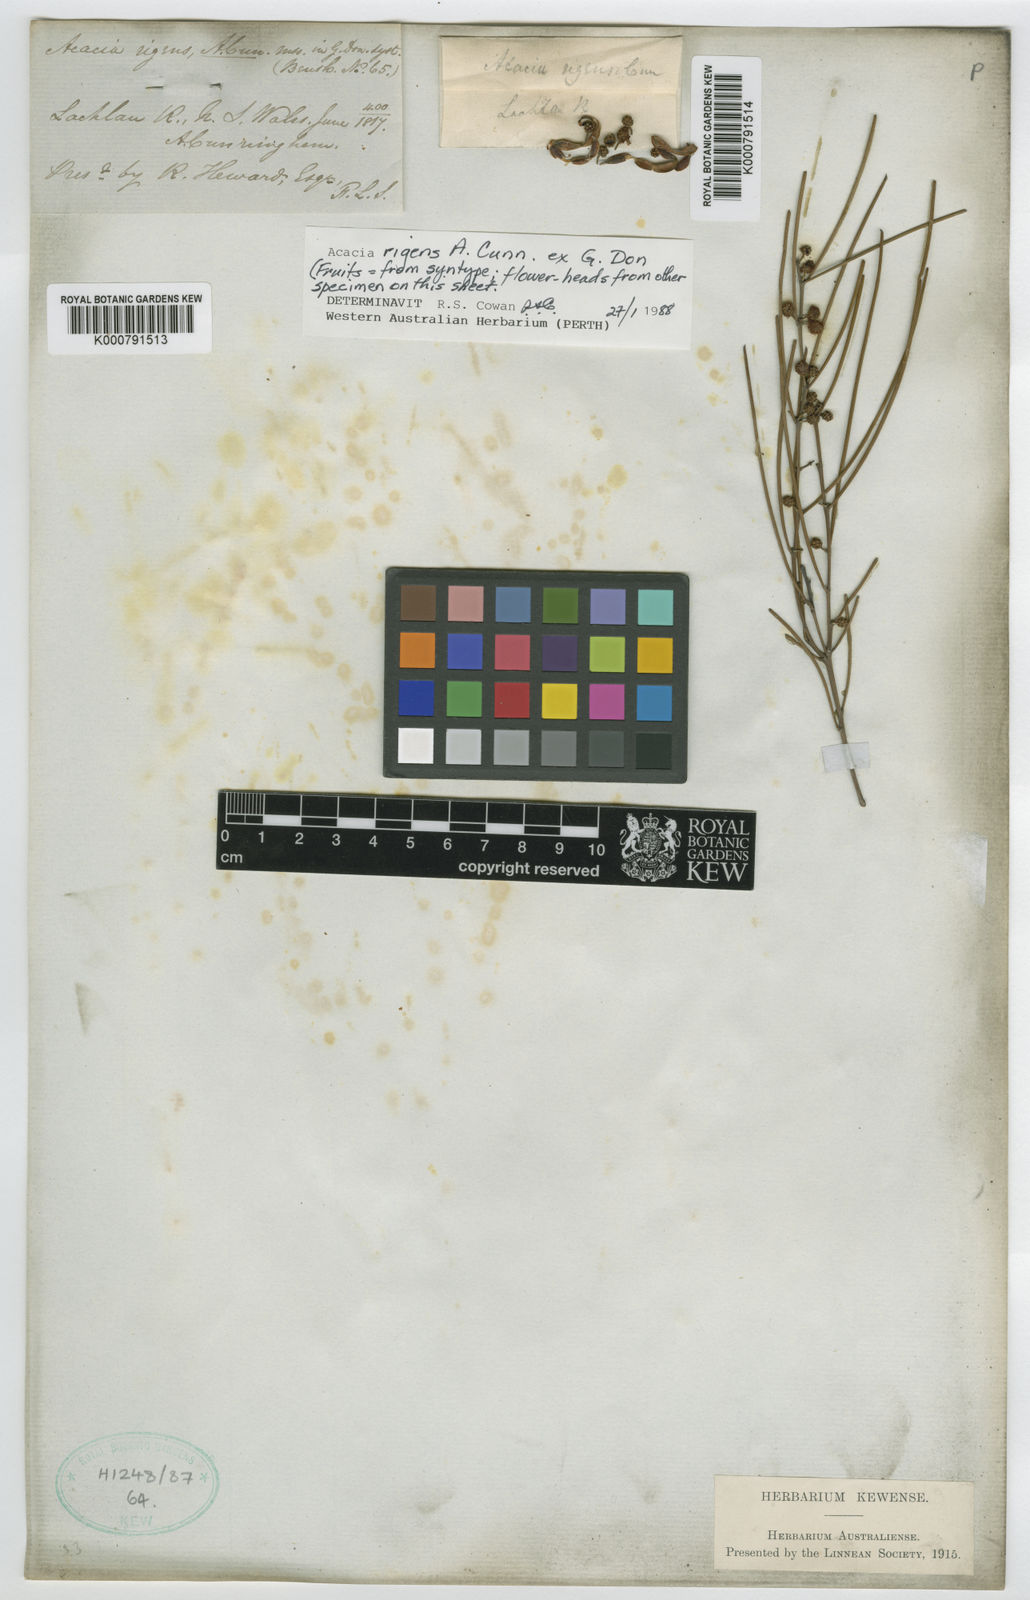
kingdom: Plantae
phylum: Tracheophyta
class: Magnoliopsida
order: Fabales
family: Fabaceae
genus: Acacia
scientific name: Acacia rigens
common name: Nealie
